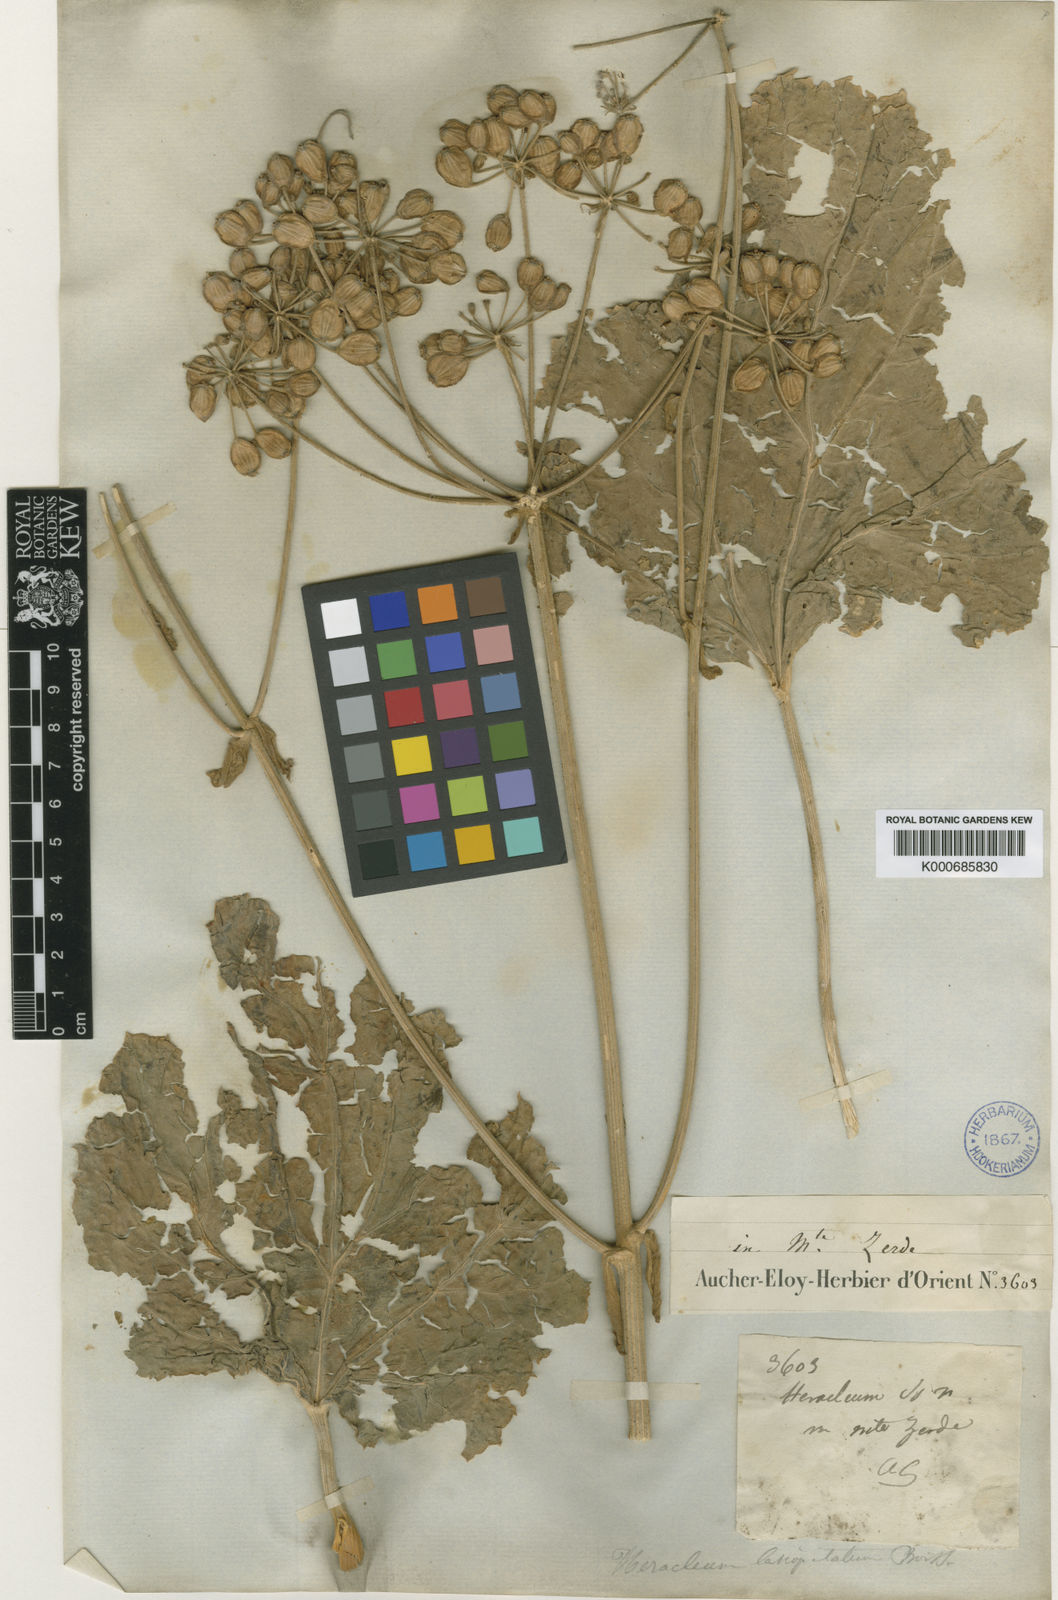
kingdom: Plantae
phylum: Tracheophyta
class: Magnoliopsida
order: Apiales
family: Apiaceae
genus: Tetrataenium
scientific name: Tetrataenium lasiopetalum
